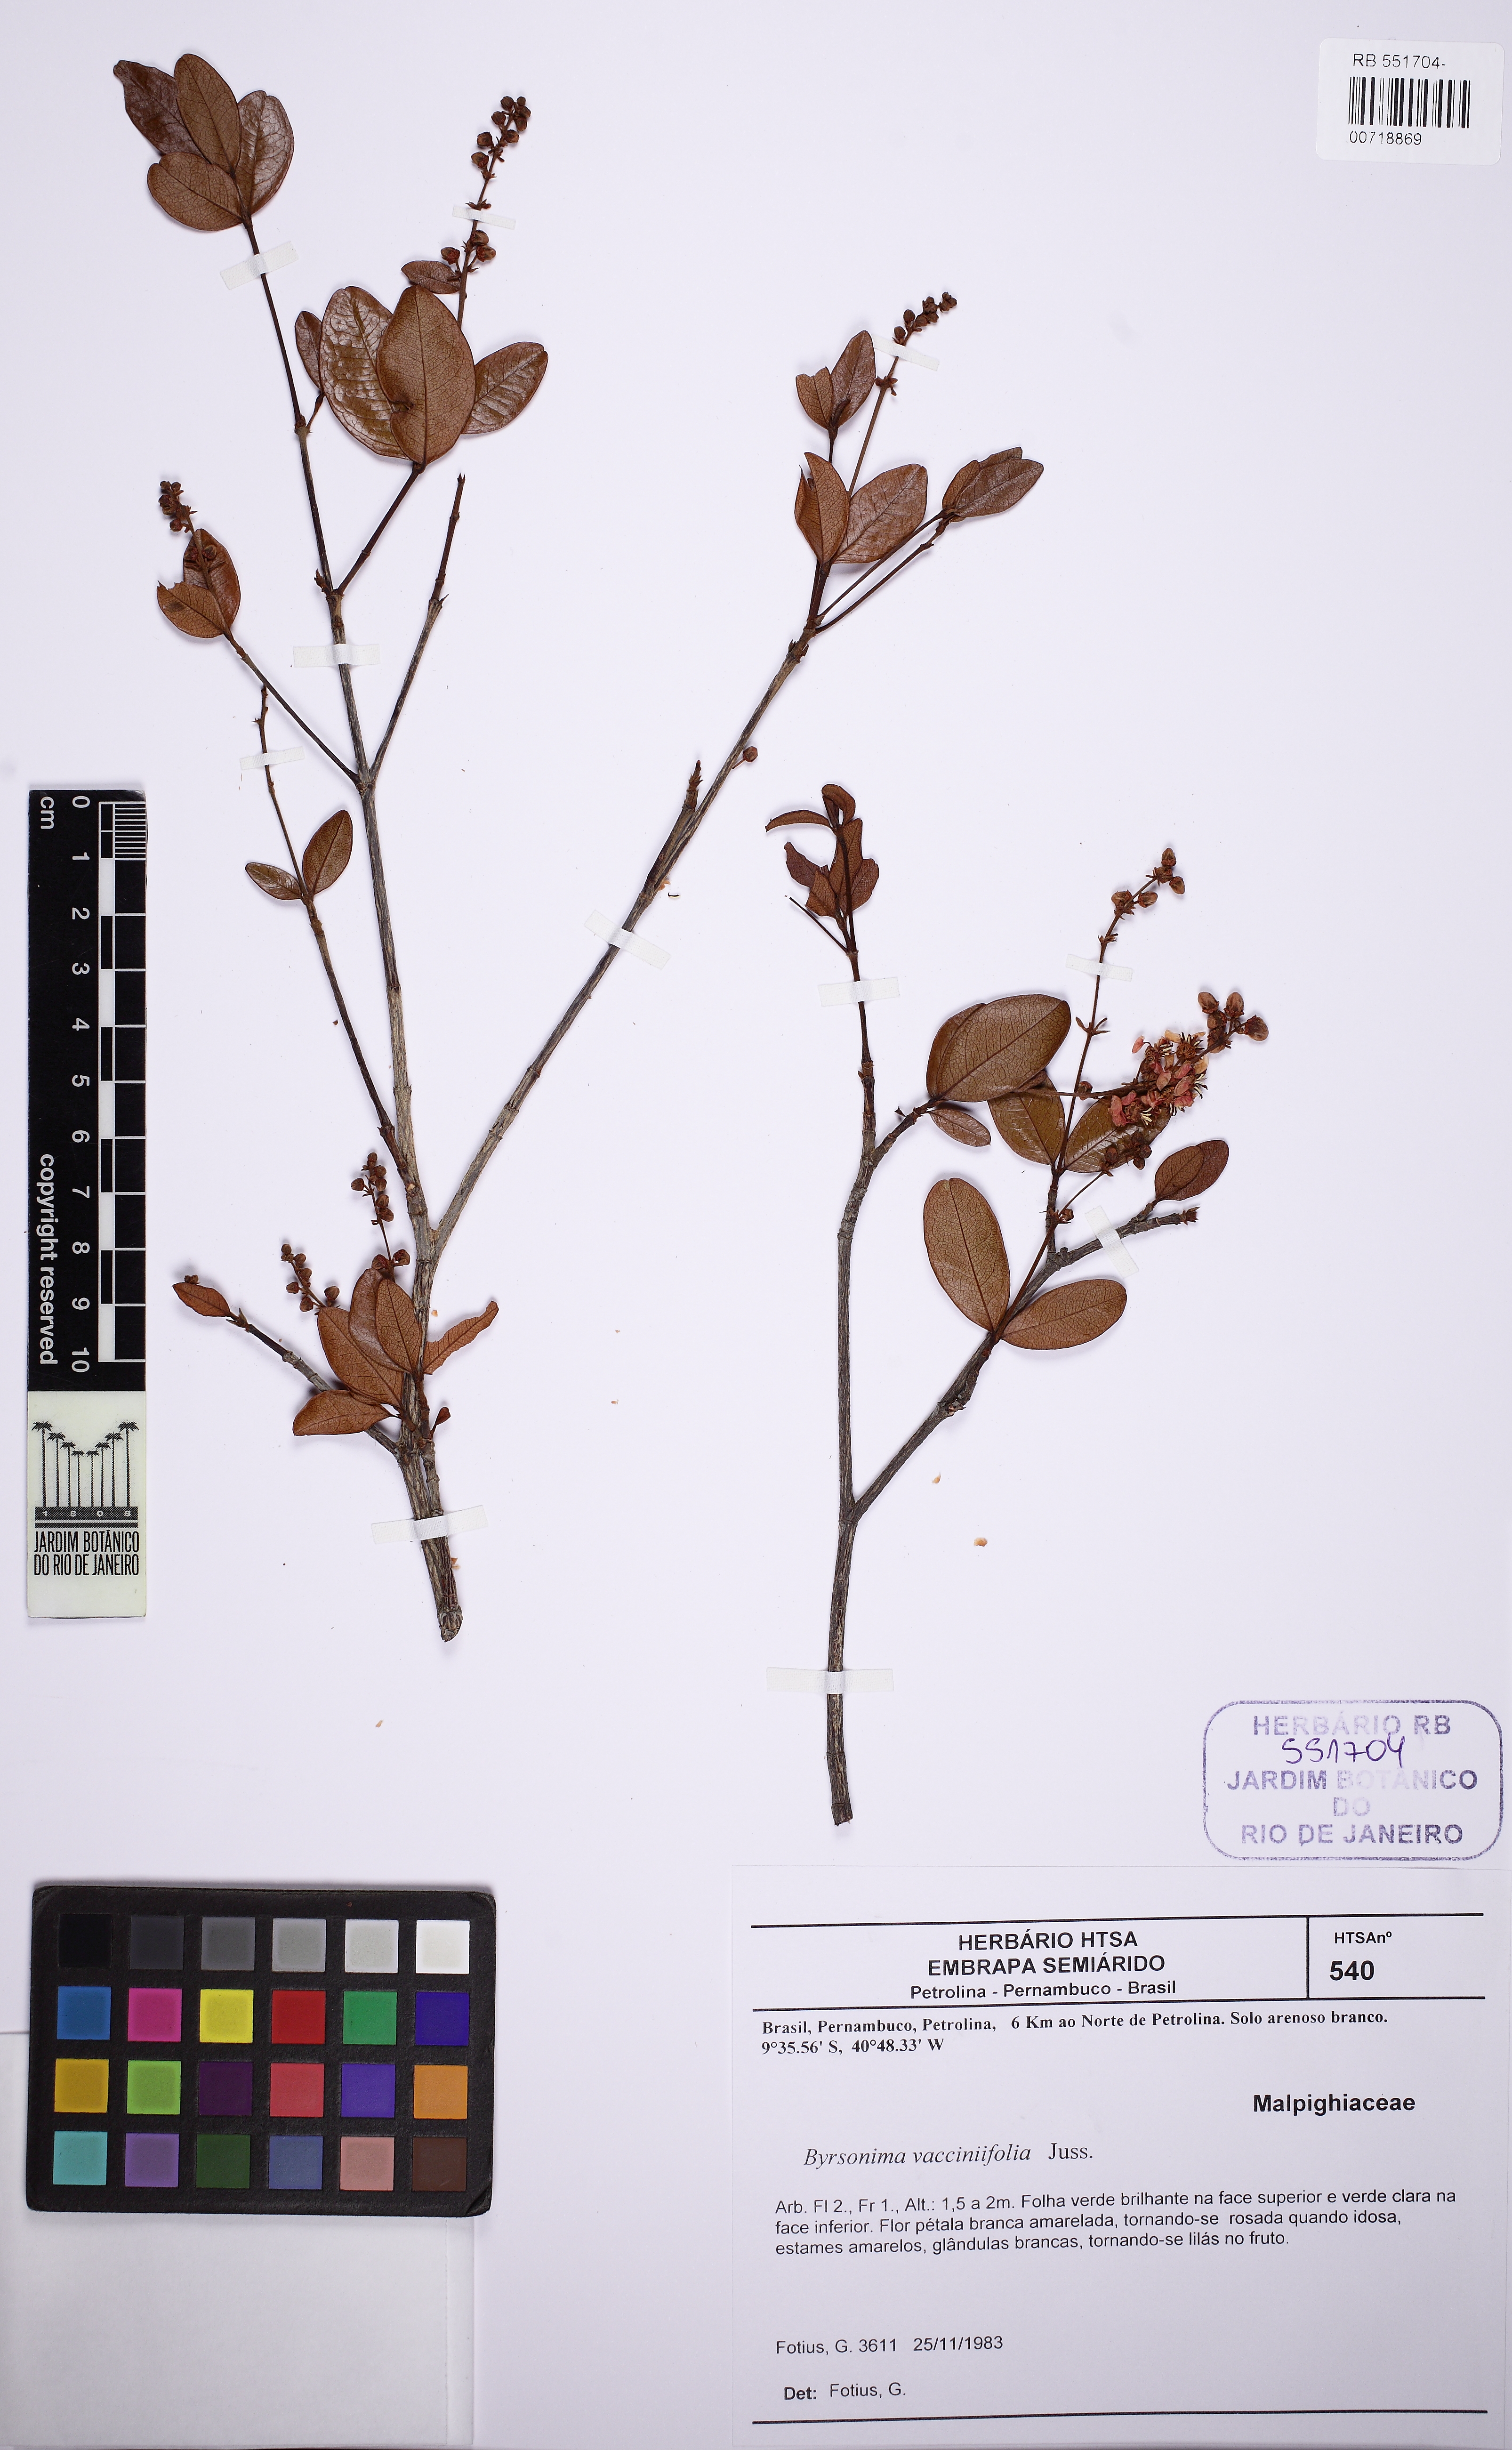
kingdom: Plantae
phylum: Tracheophyta
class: Magnoliopsida
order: Malpighiales
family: Malpighiaceae
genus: Byrsonima
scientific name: Byrsonima vacciniifolia
